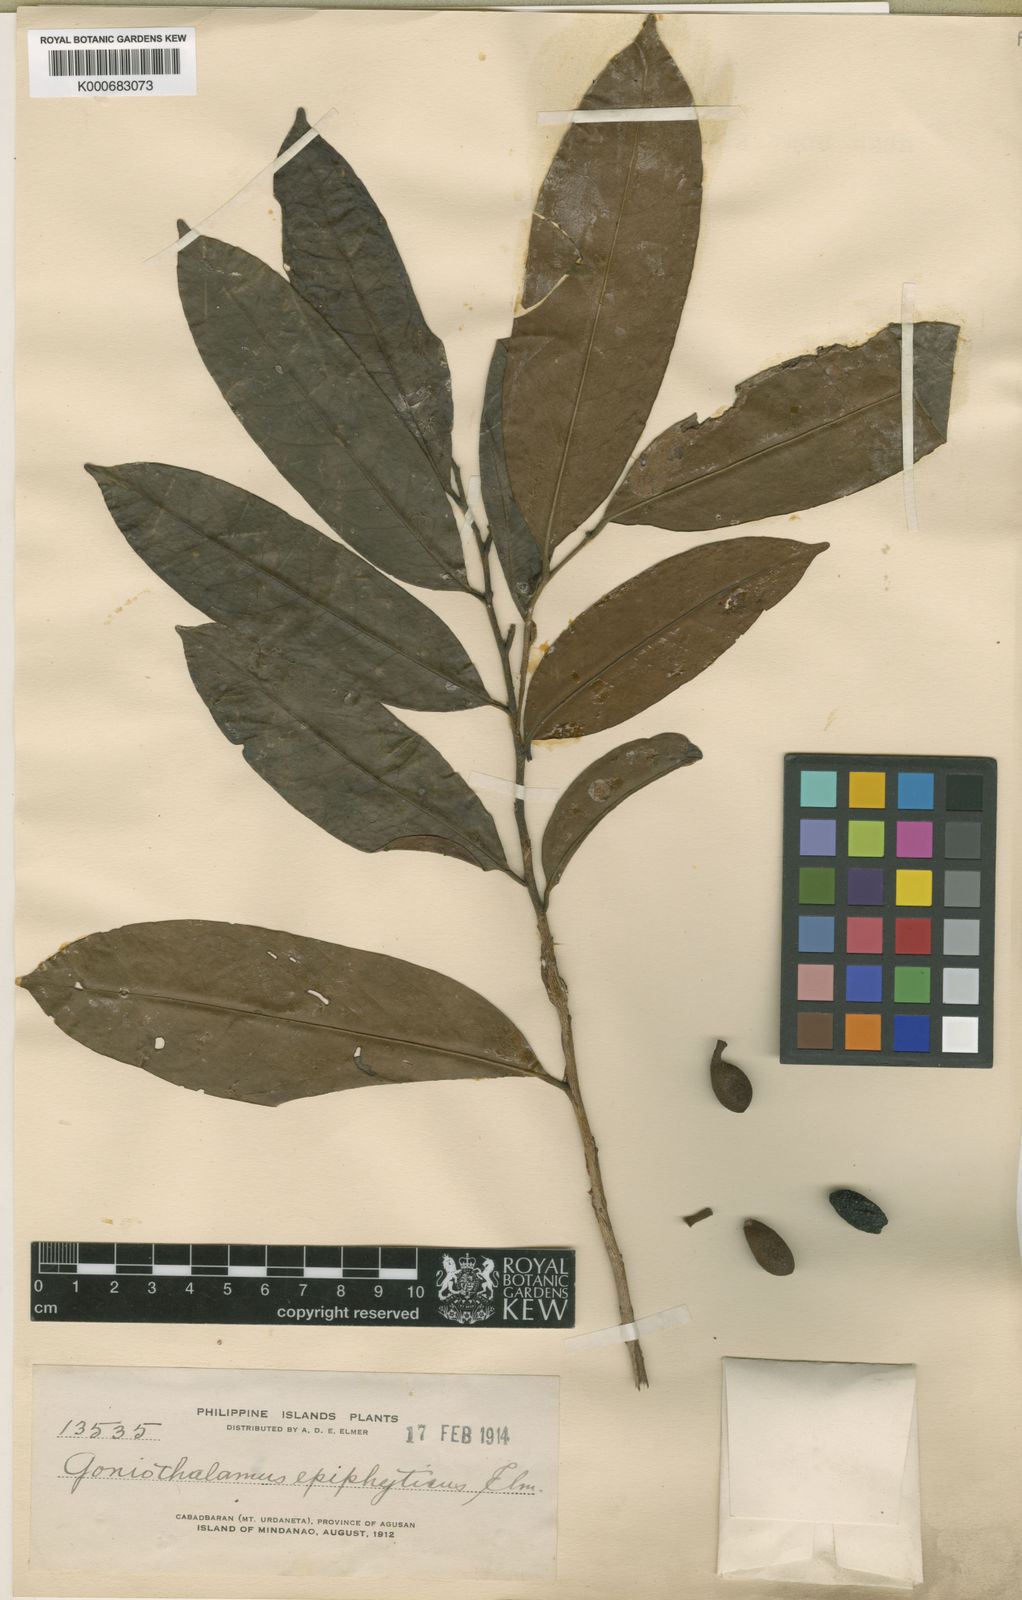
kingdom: Plantae
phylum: Tracheophyta
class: Magnoliopsida
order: Magnoliales
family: Annonaceae
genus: Goniothalamus
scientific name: Goniothalamus epiphyticus
